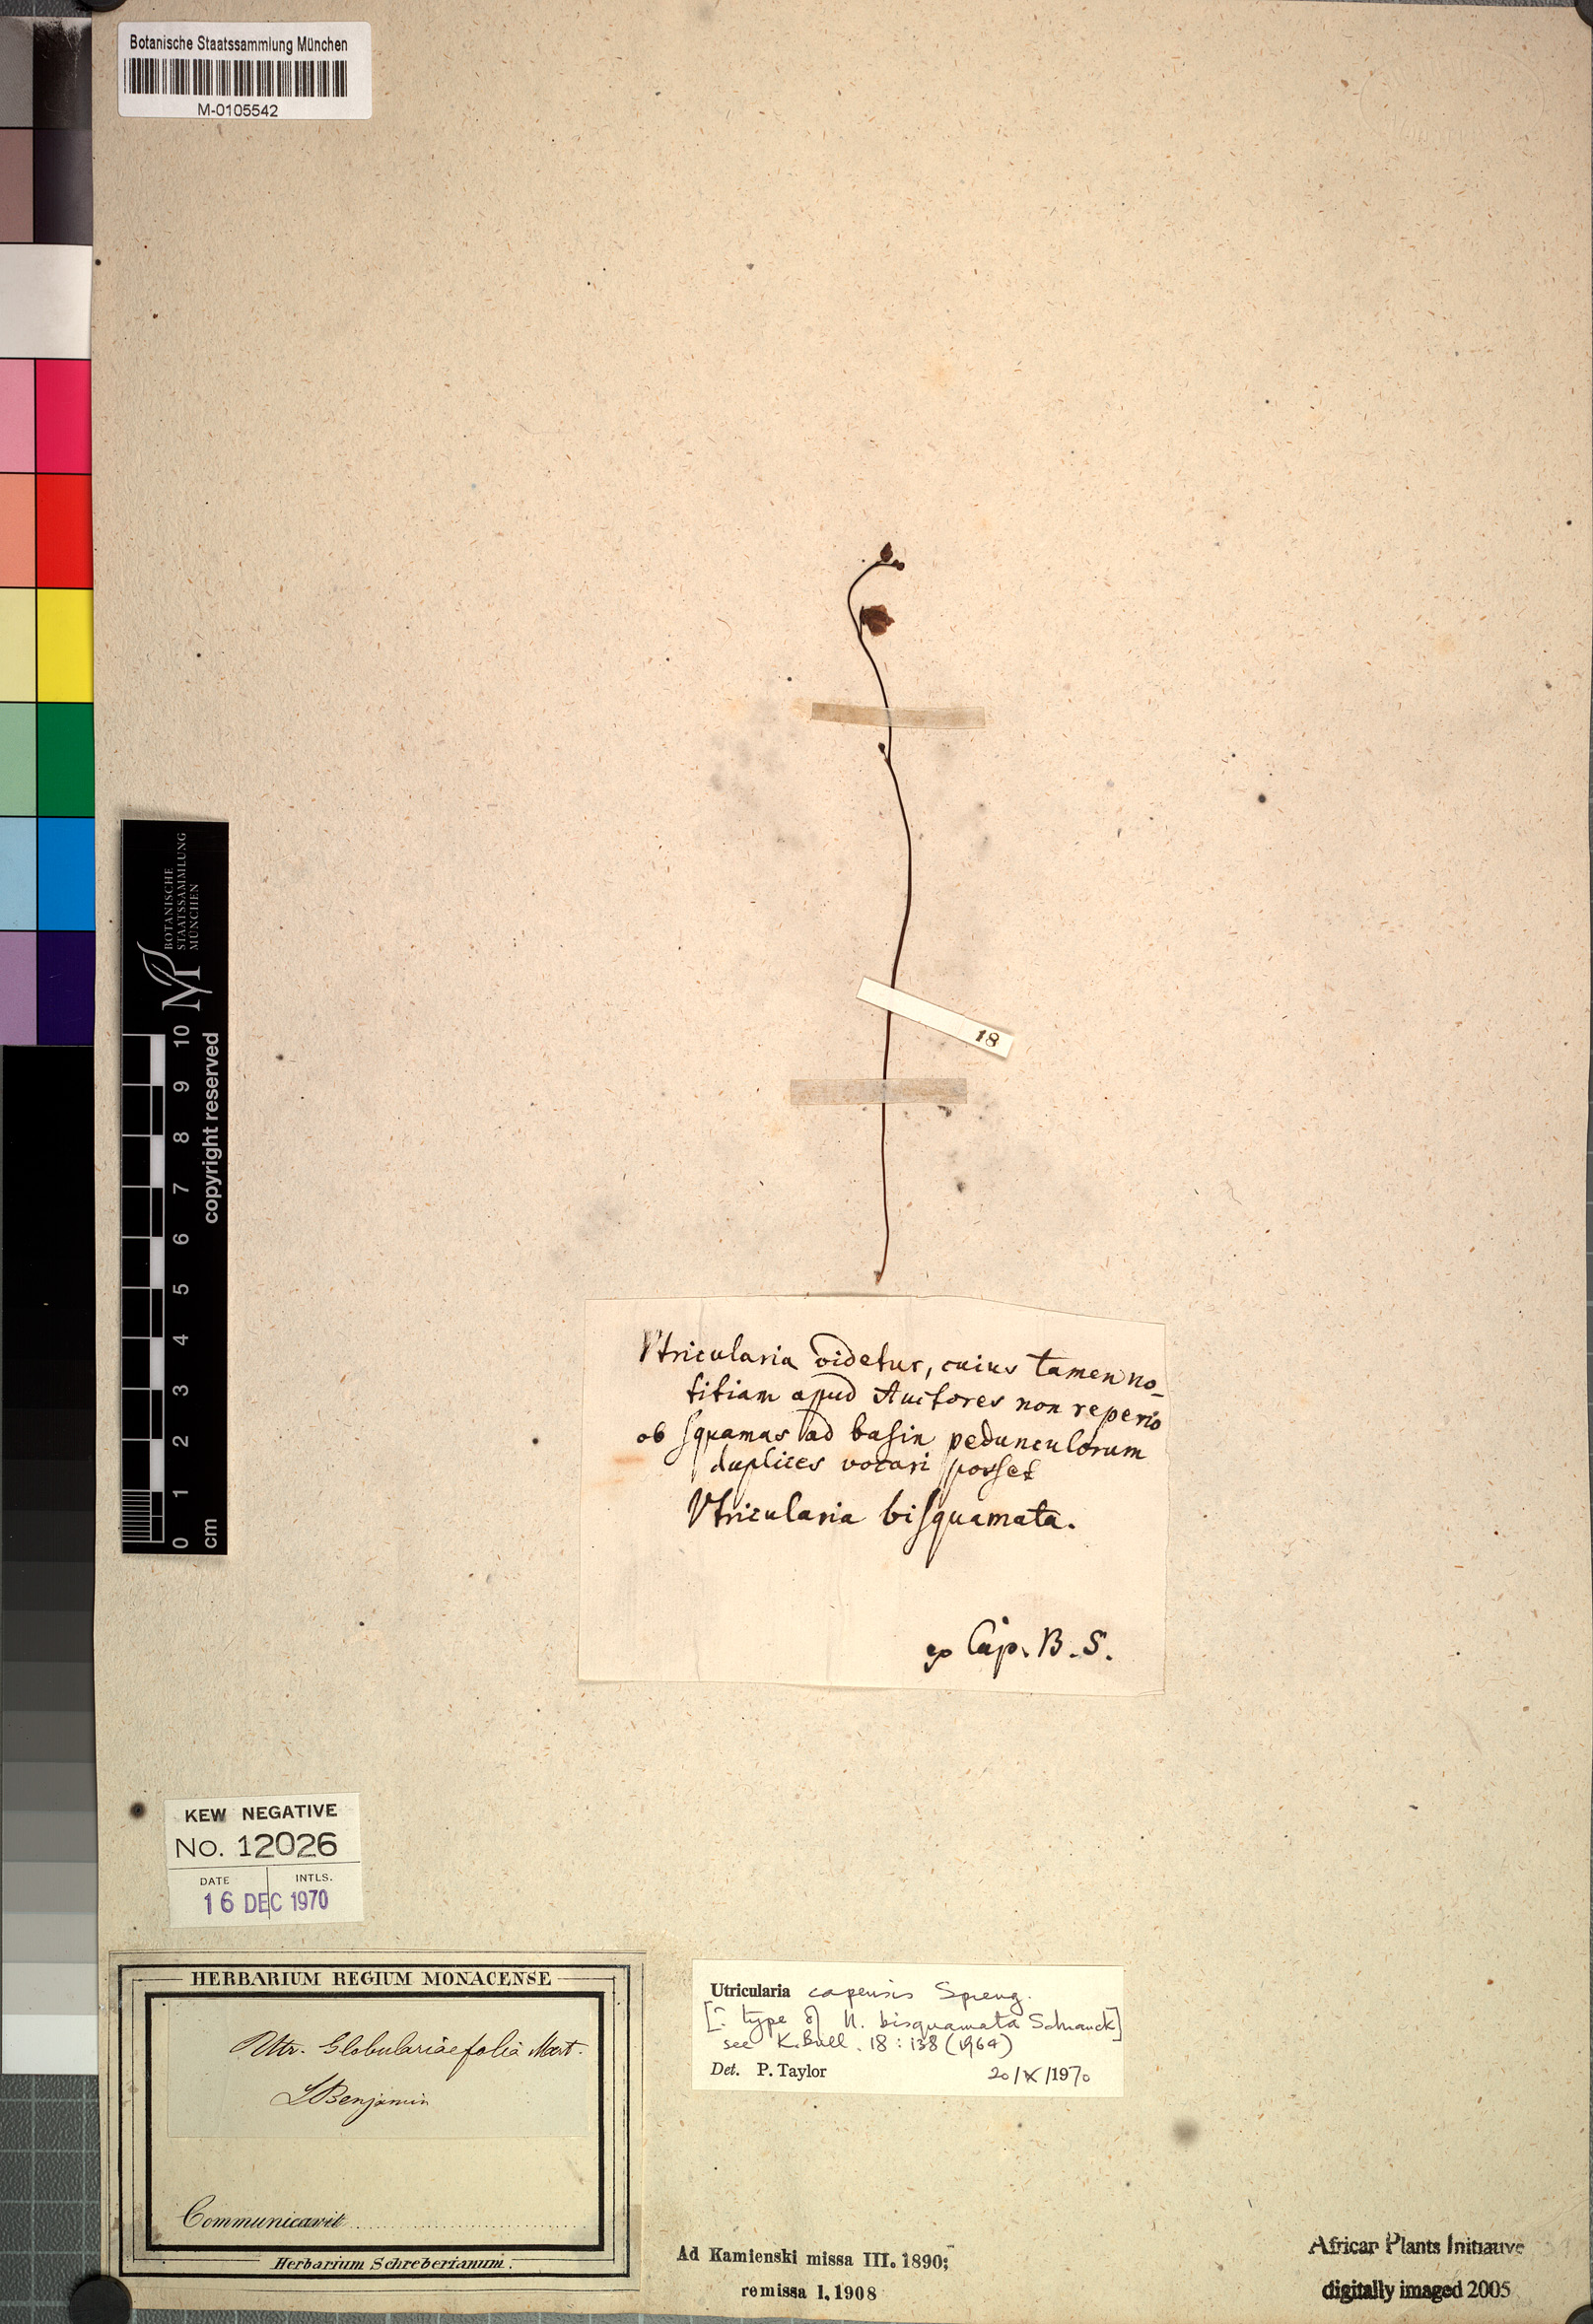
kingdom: Plantae
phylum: Tracheophyta
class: Magnoliopsida
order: Lamiales
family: Lentibulariaceae
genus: Utricularia
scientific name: Utricularia bisquamata
